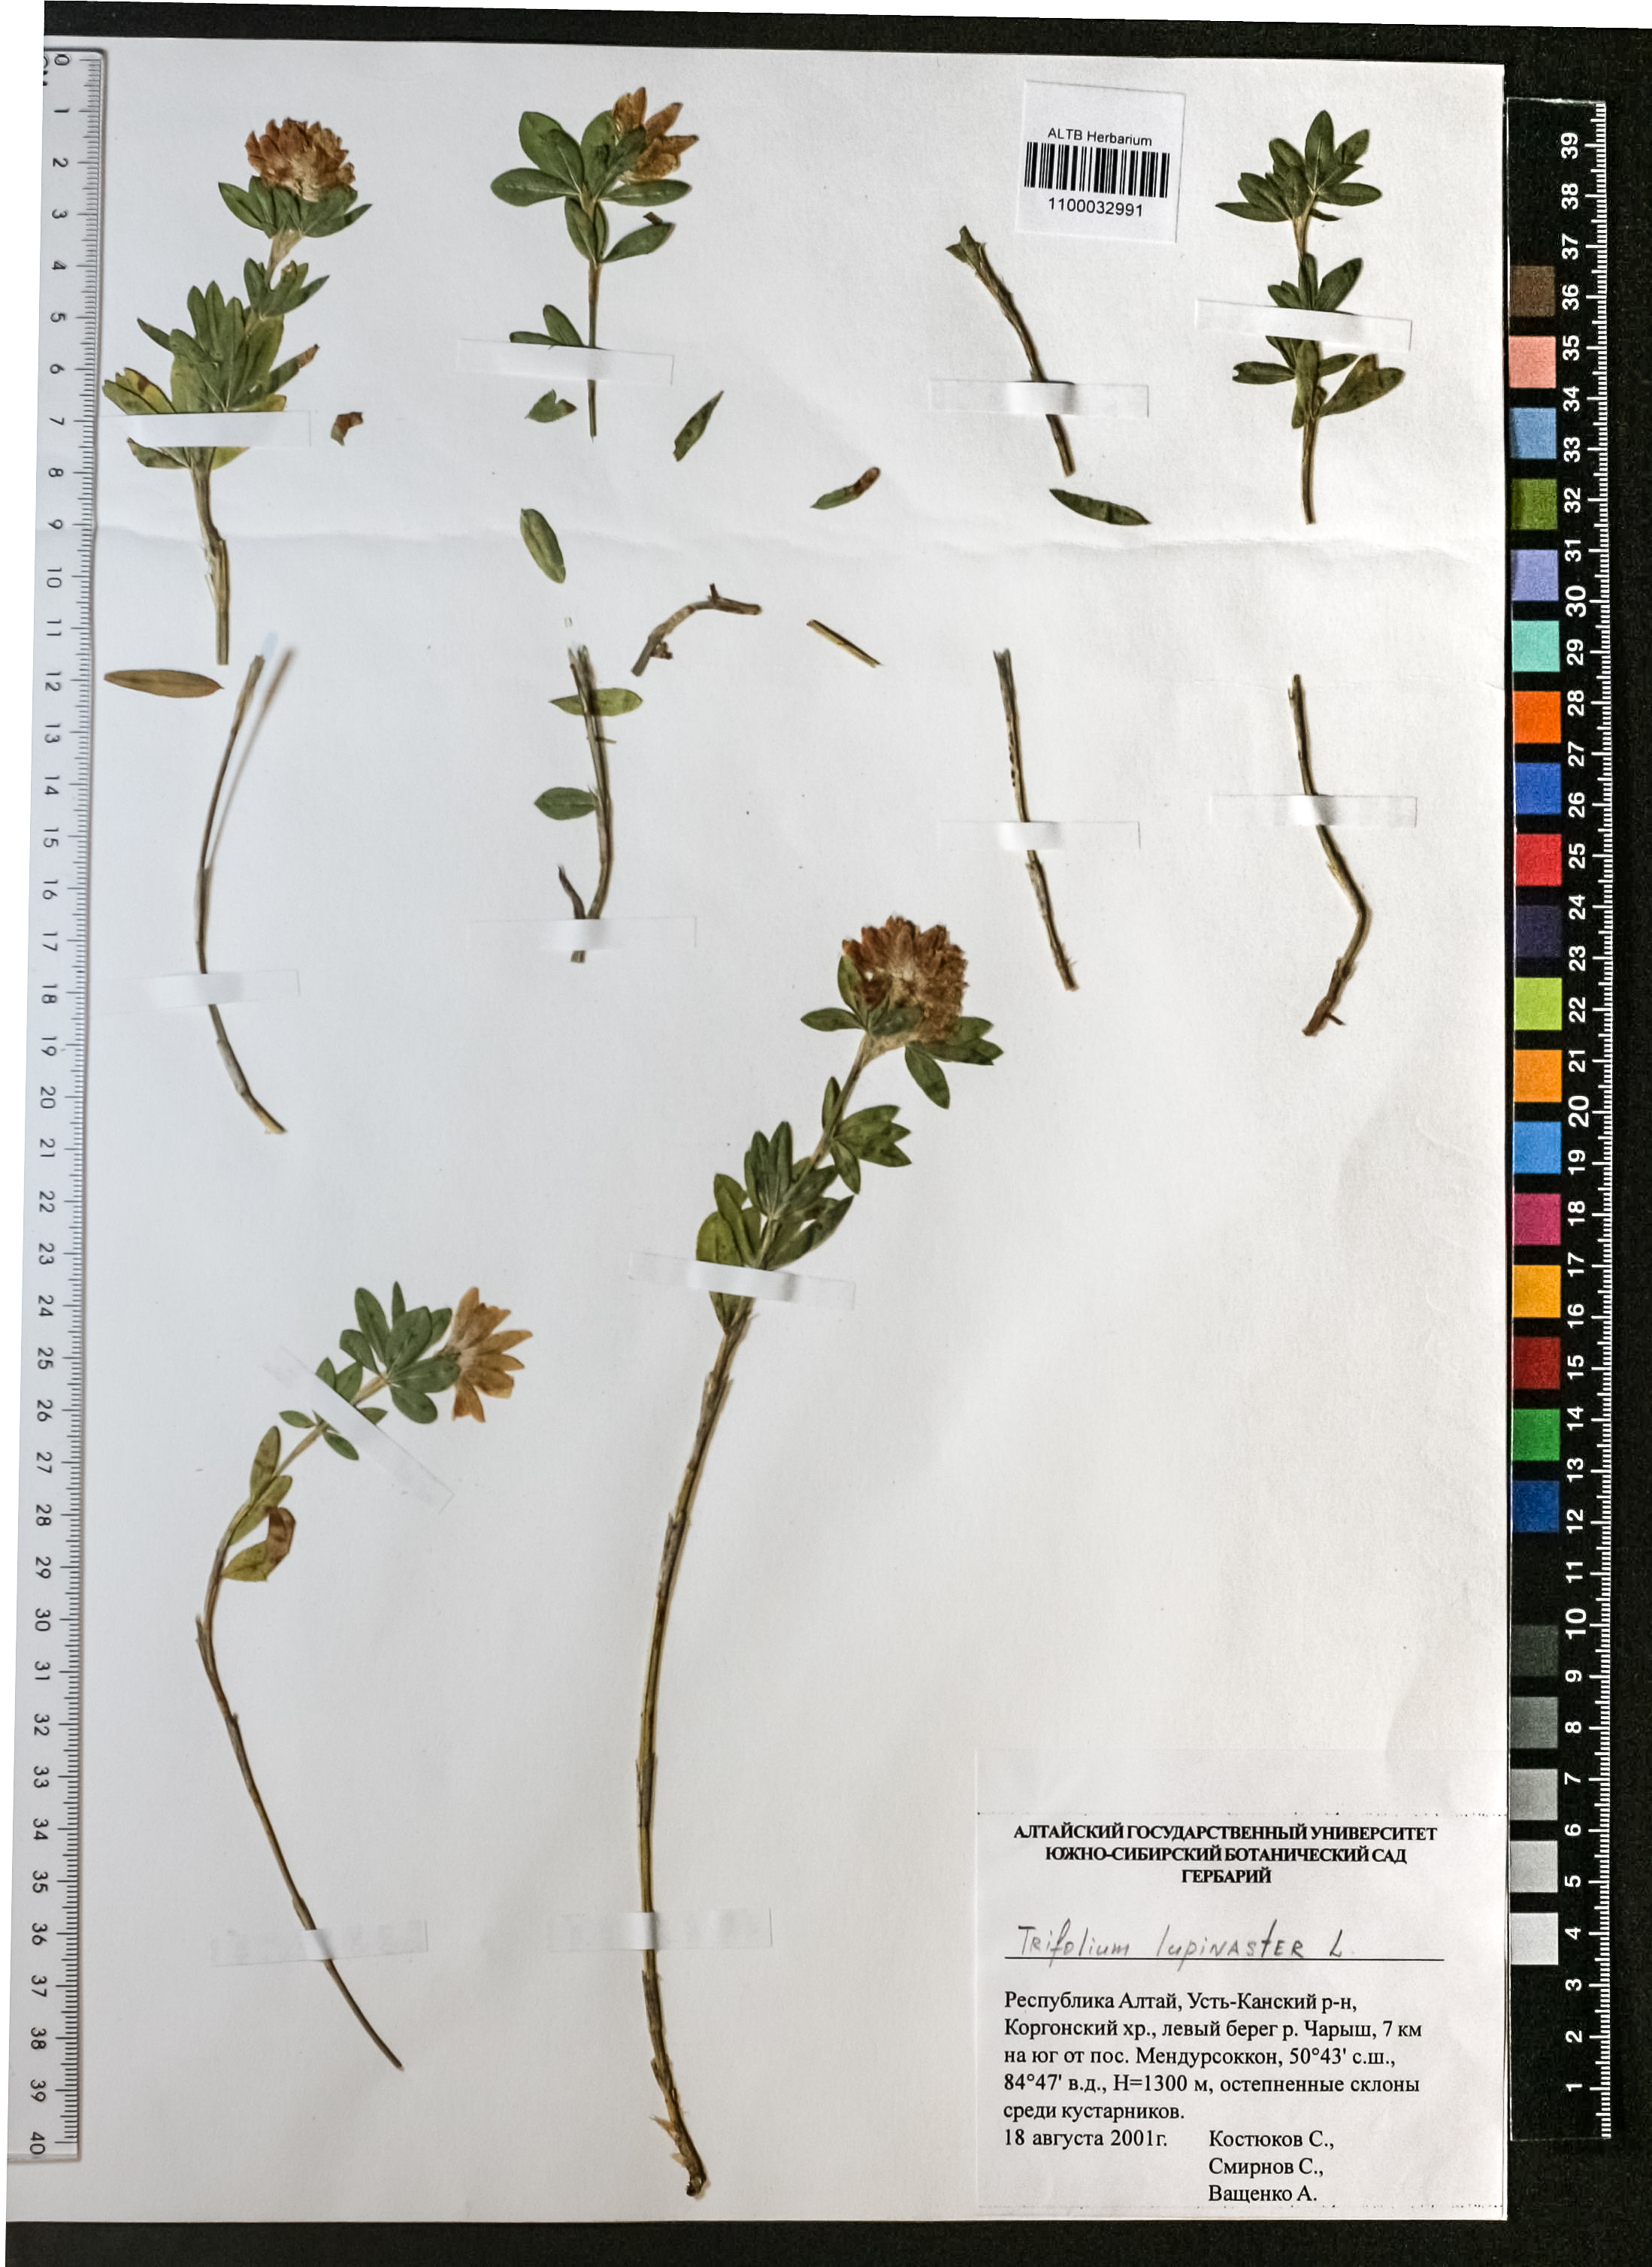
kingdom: Plantae
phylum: Tracheophyta
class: Magnoliopsida
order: Fabales
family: Fabaceae
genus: Trifolium
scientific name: Trifolium lupinaster
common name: Lupine clover
